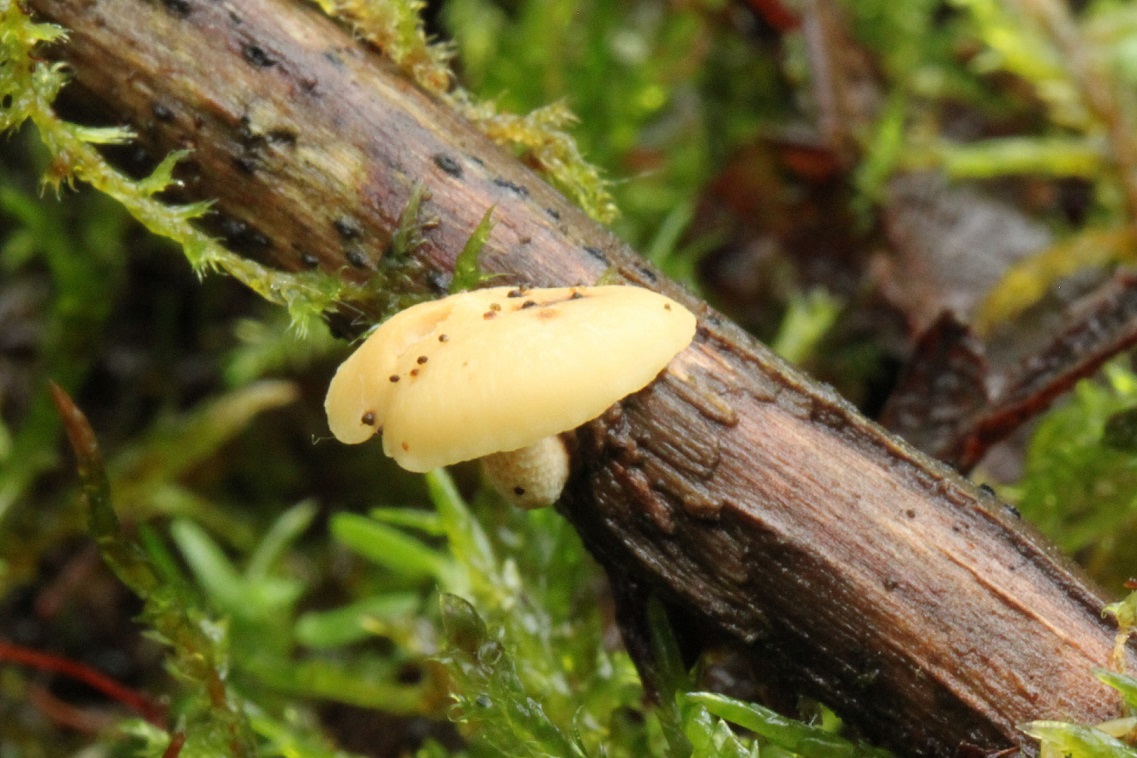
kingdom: Fungi
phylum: Basidiomycota
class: Agaricomycetes
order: Polyporales
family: Polyporaceae
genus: Cerioporus
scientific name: Cerioporus varius
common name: foranderlig stilkporesvamp
